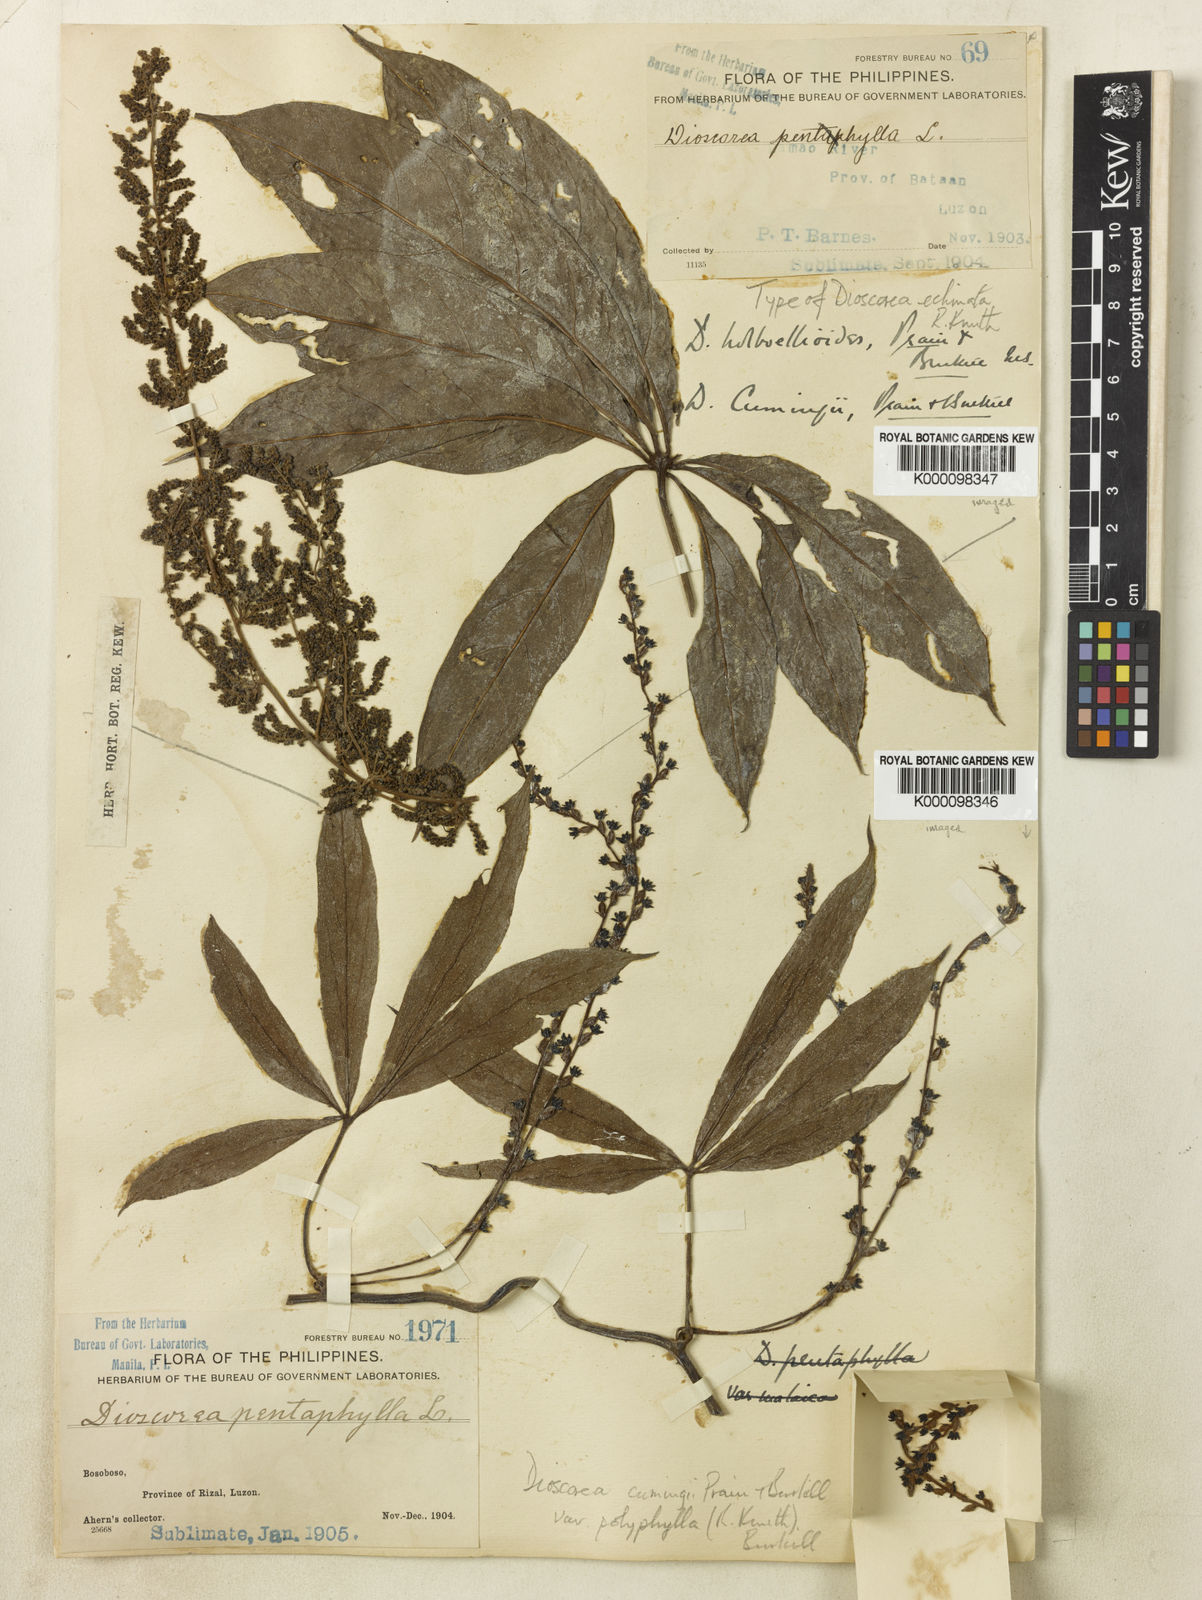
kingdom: Plantae
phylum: Tracheophyta
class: Liliopsida
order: Dioscoreales
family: Dioscoreaceae
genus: Dioscorea
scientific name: Dioscorea cumingii
